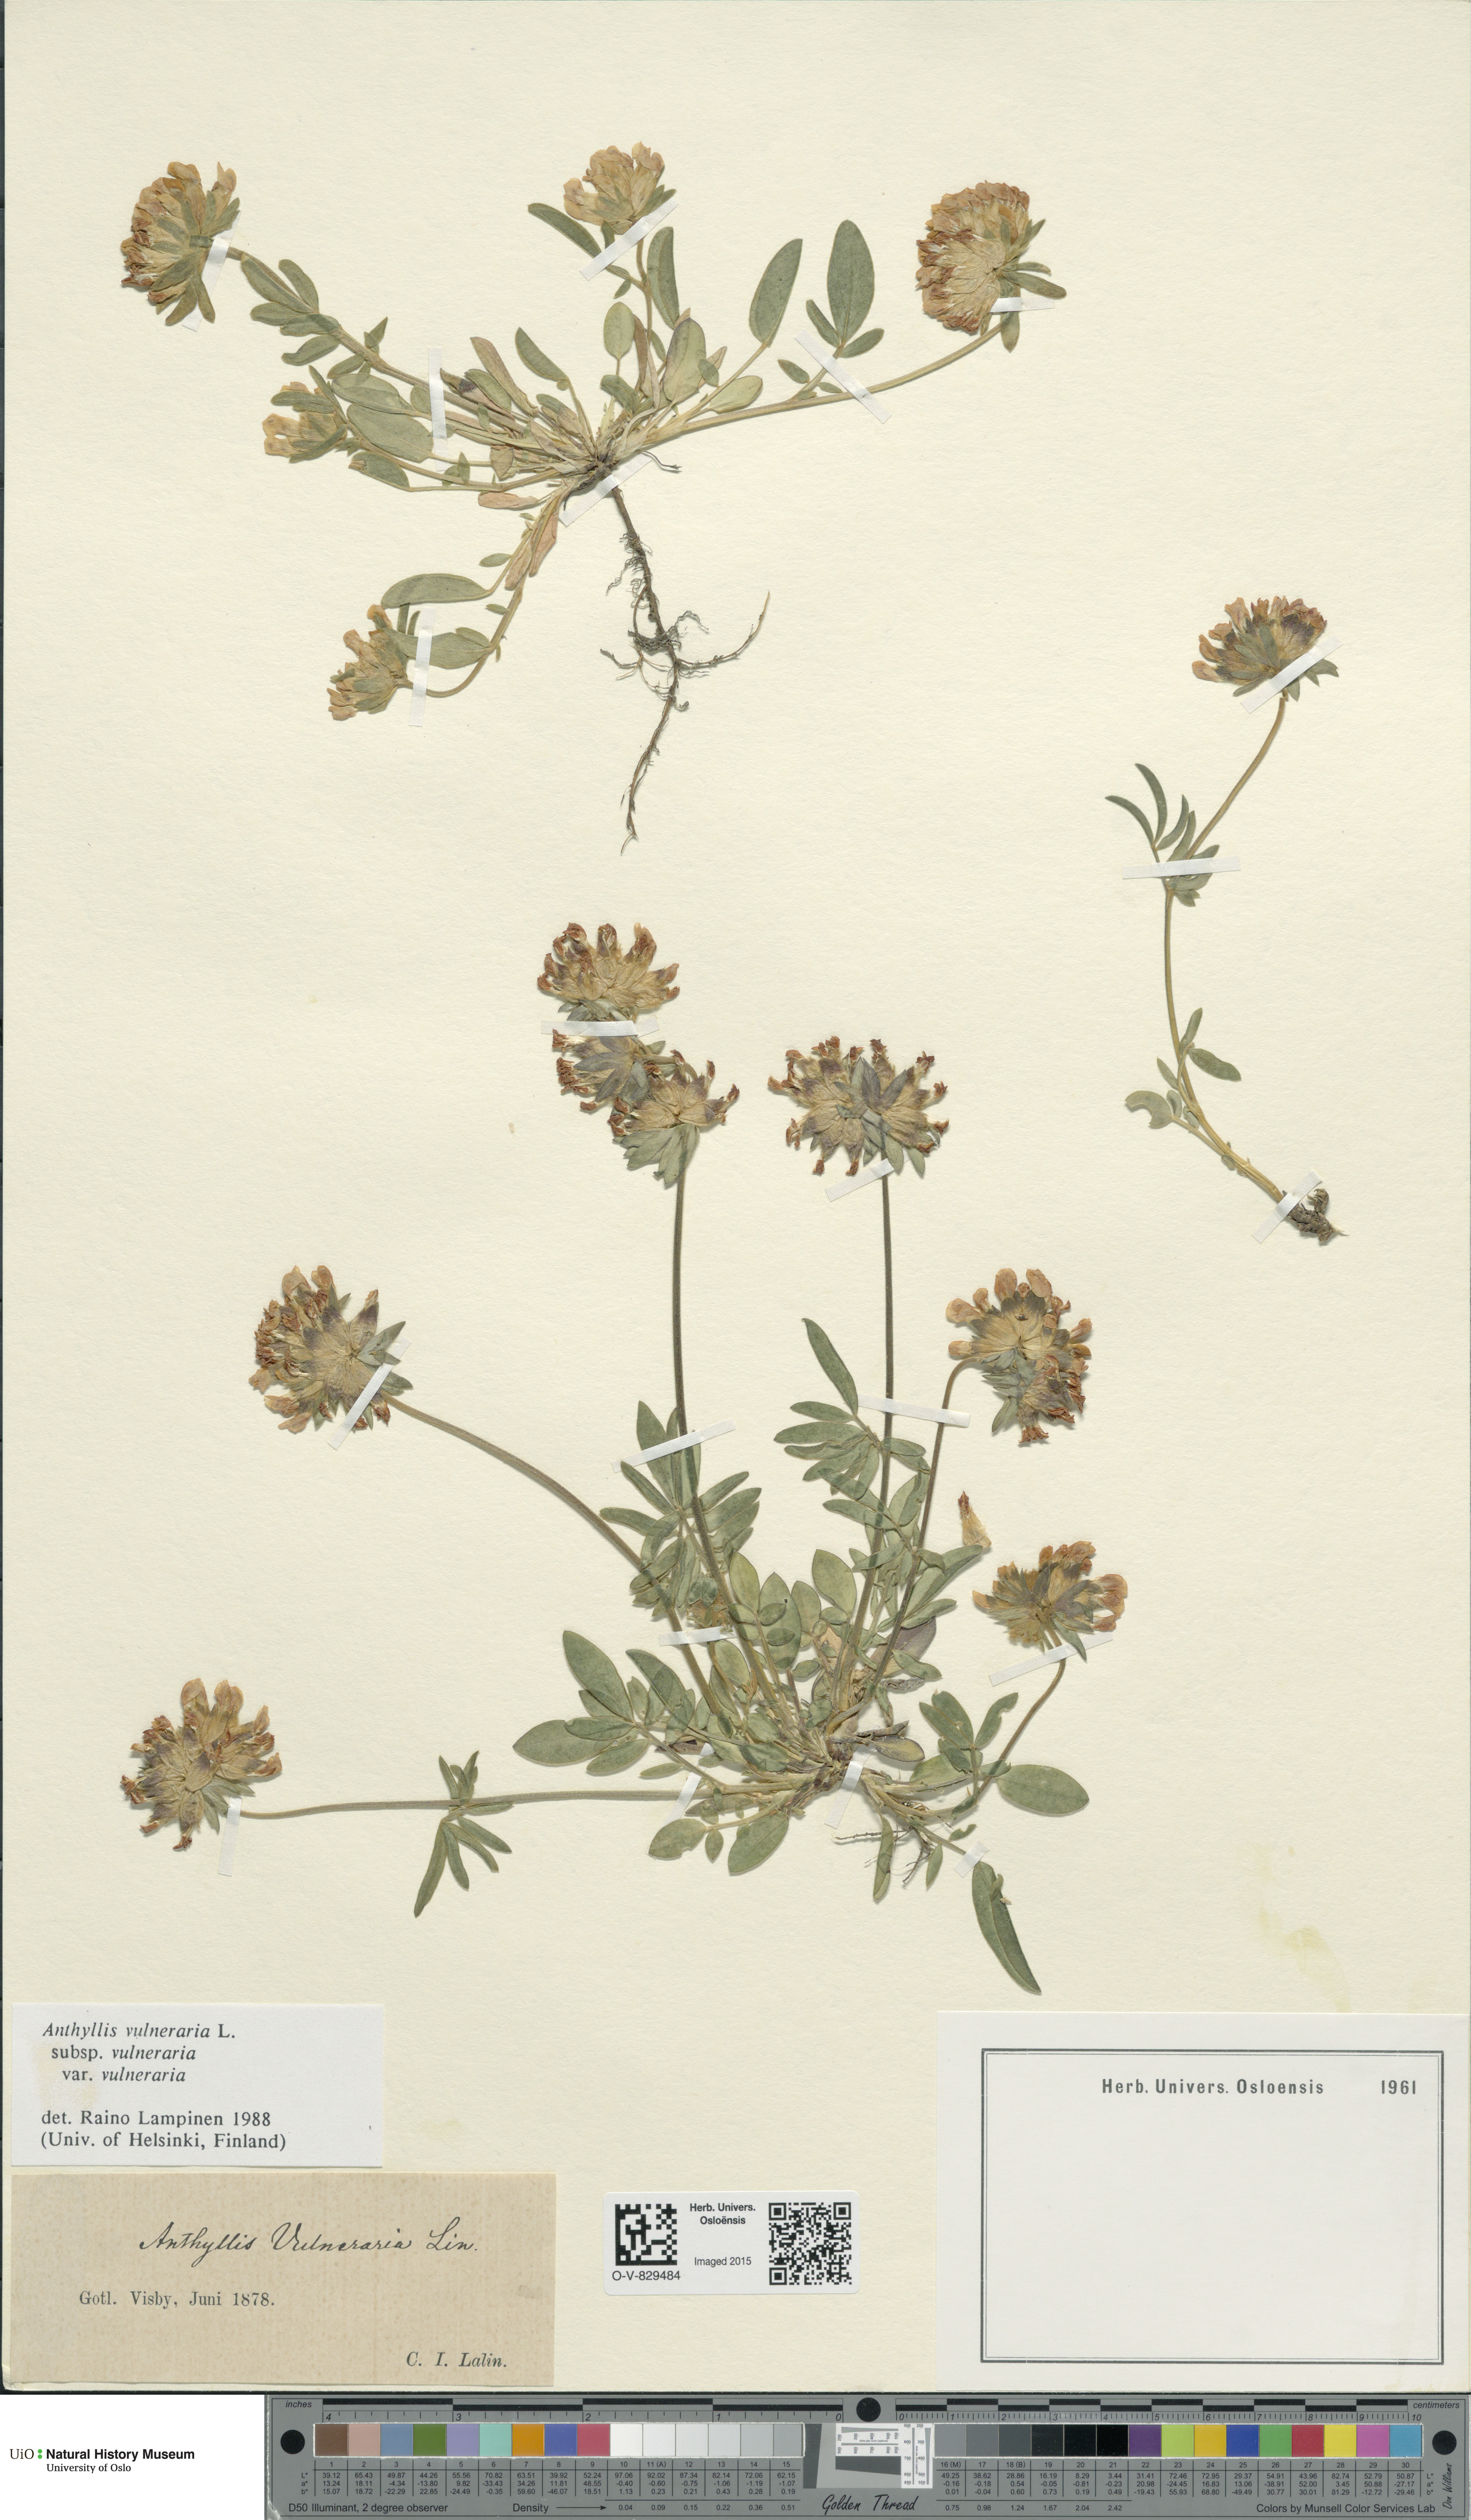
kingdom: Plantae
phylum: Tracheophyta
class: Magnoliopsida
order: Fabales
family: Fabaceae
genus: Anthyllis
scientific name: Anthyllis vulneraria
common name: Kidney vetch
